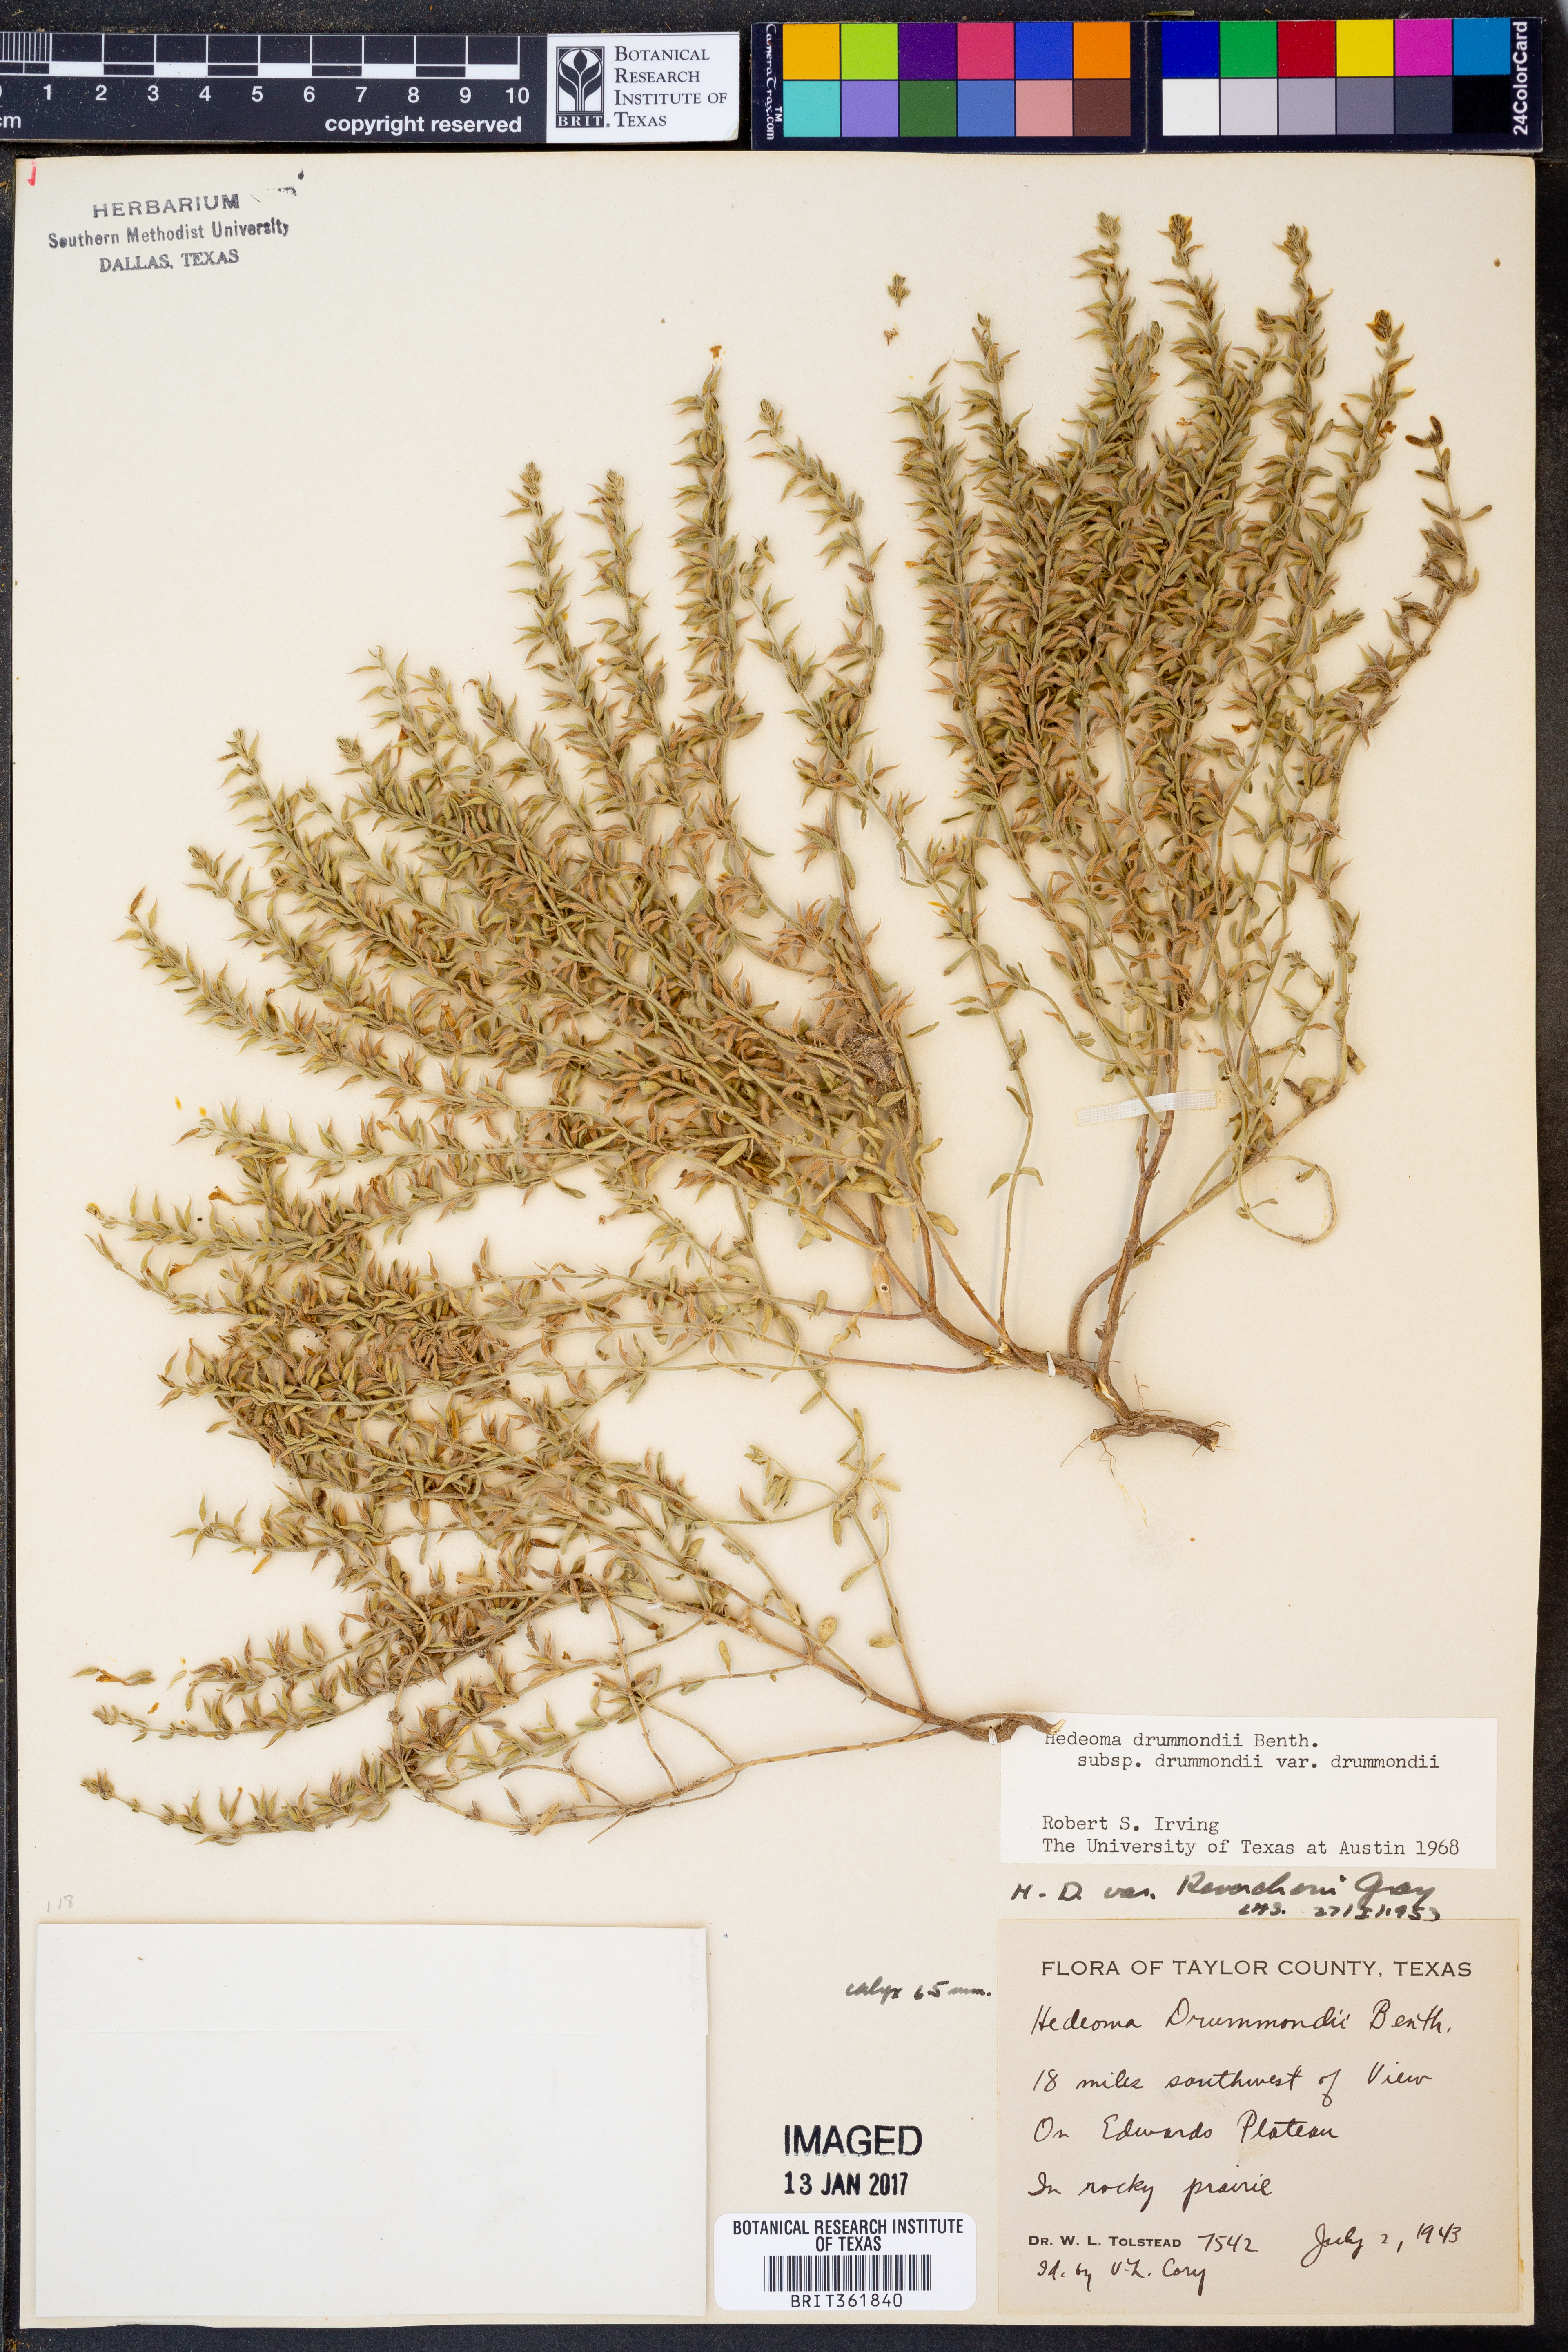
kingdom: Plantae
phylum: Tracheophyta
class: Magnoliopsida
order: Lamiales
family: Lamiaceae
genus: Hedeoma
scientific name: Hedeoma drummondii
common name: New mexico pennyroyal
